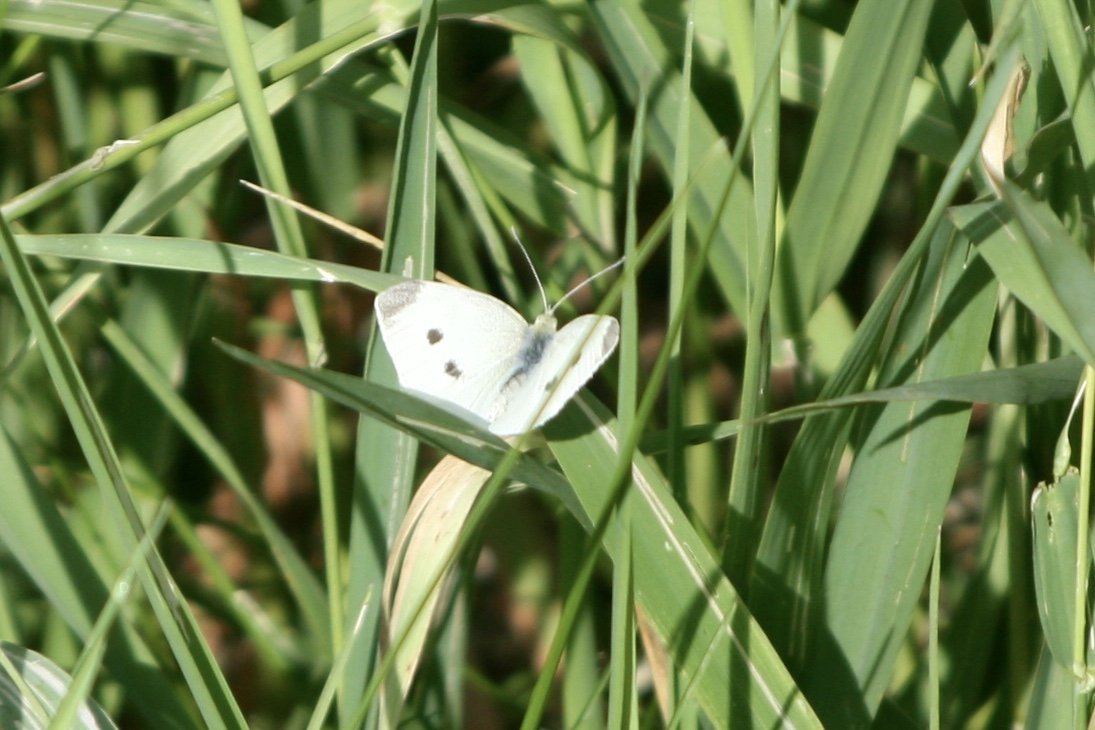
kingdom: Animalia
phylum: Arthropoda
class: Insecta
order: Lepidoptera
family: Pieridae
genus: Pieris
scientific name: Pieris rapae
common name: Cabbage White
